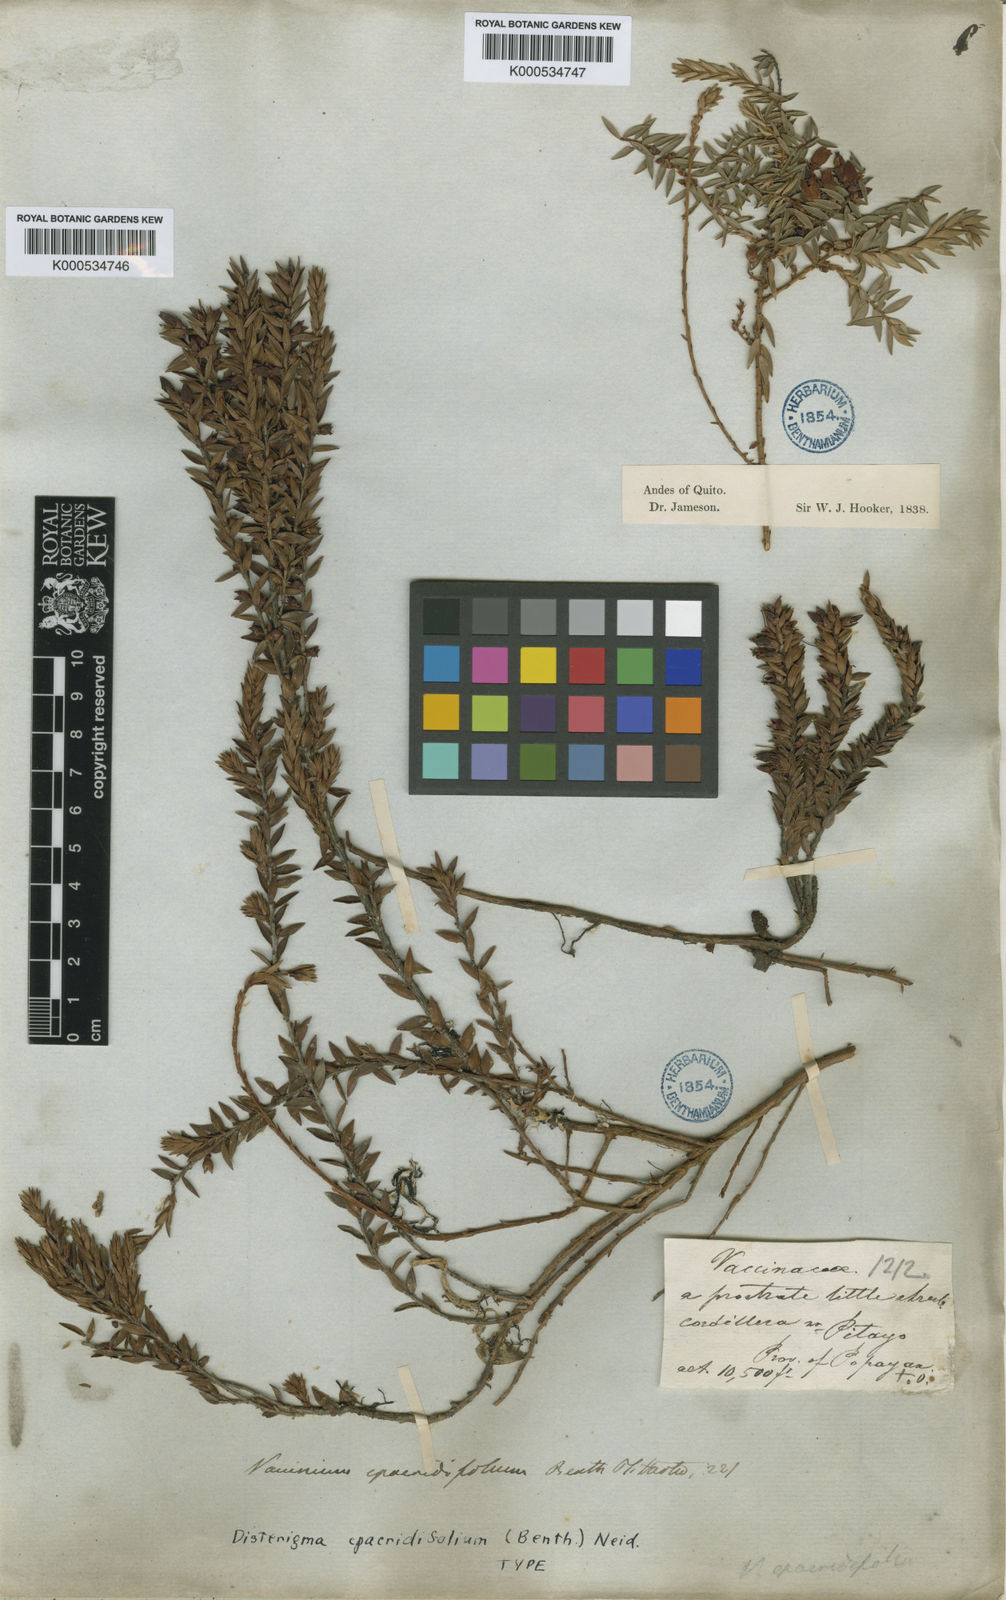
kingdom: Plantae
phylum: Tracheophyta
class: Magnoliopsida
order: Ericales
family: Ericaceae
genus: Disterigma
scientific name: Disterigma
